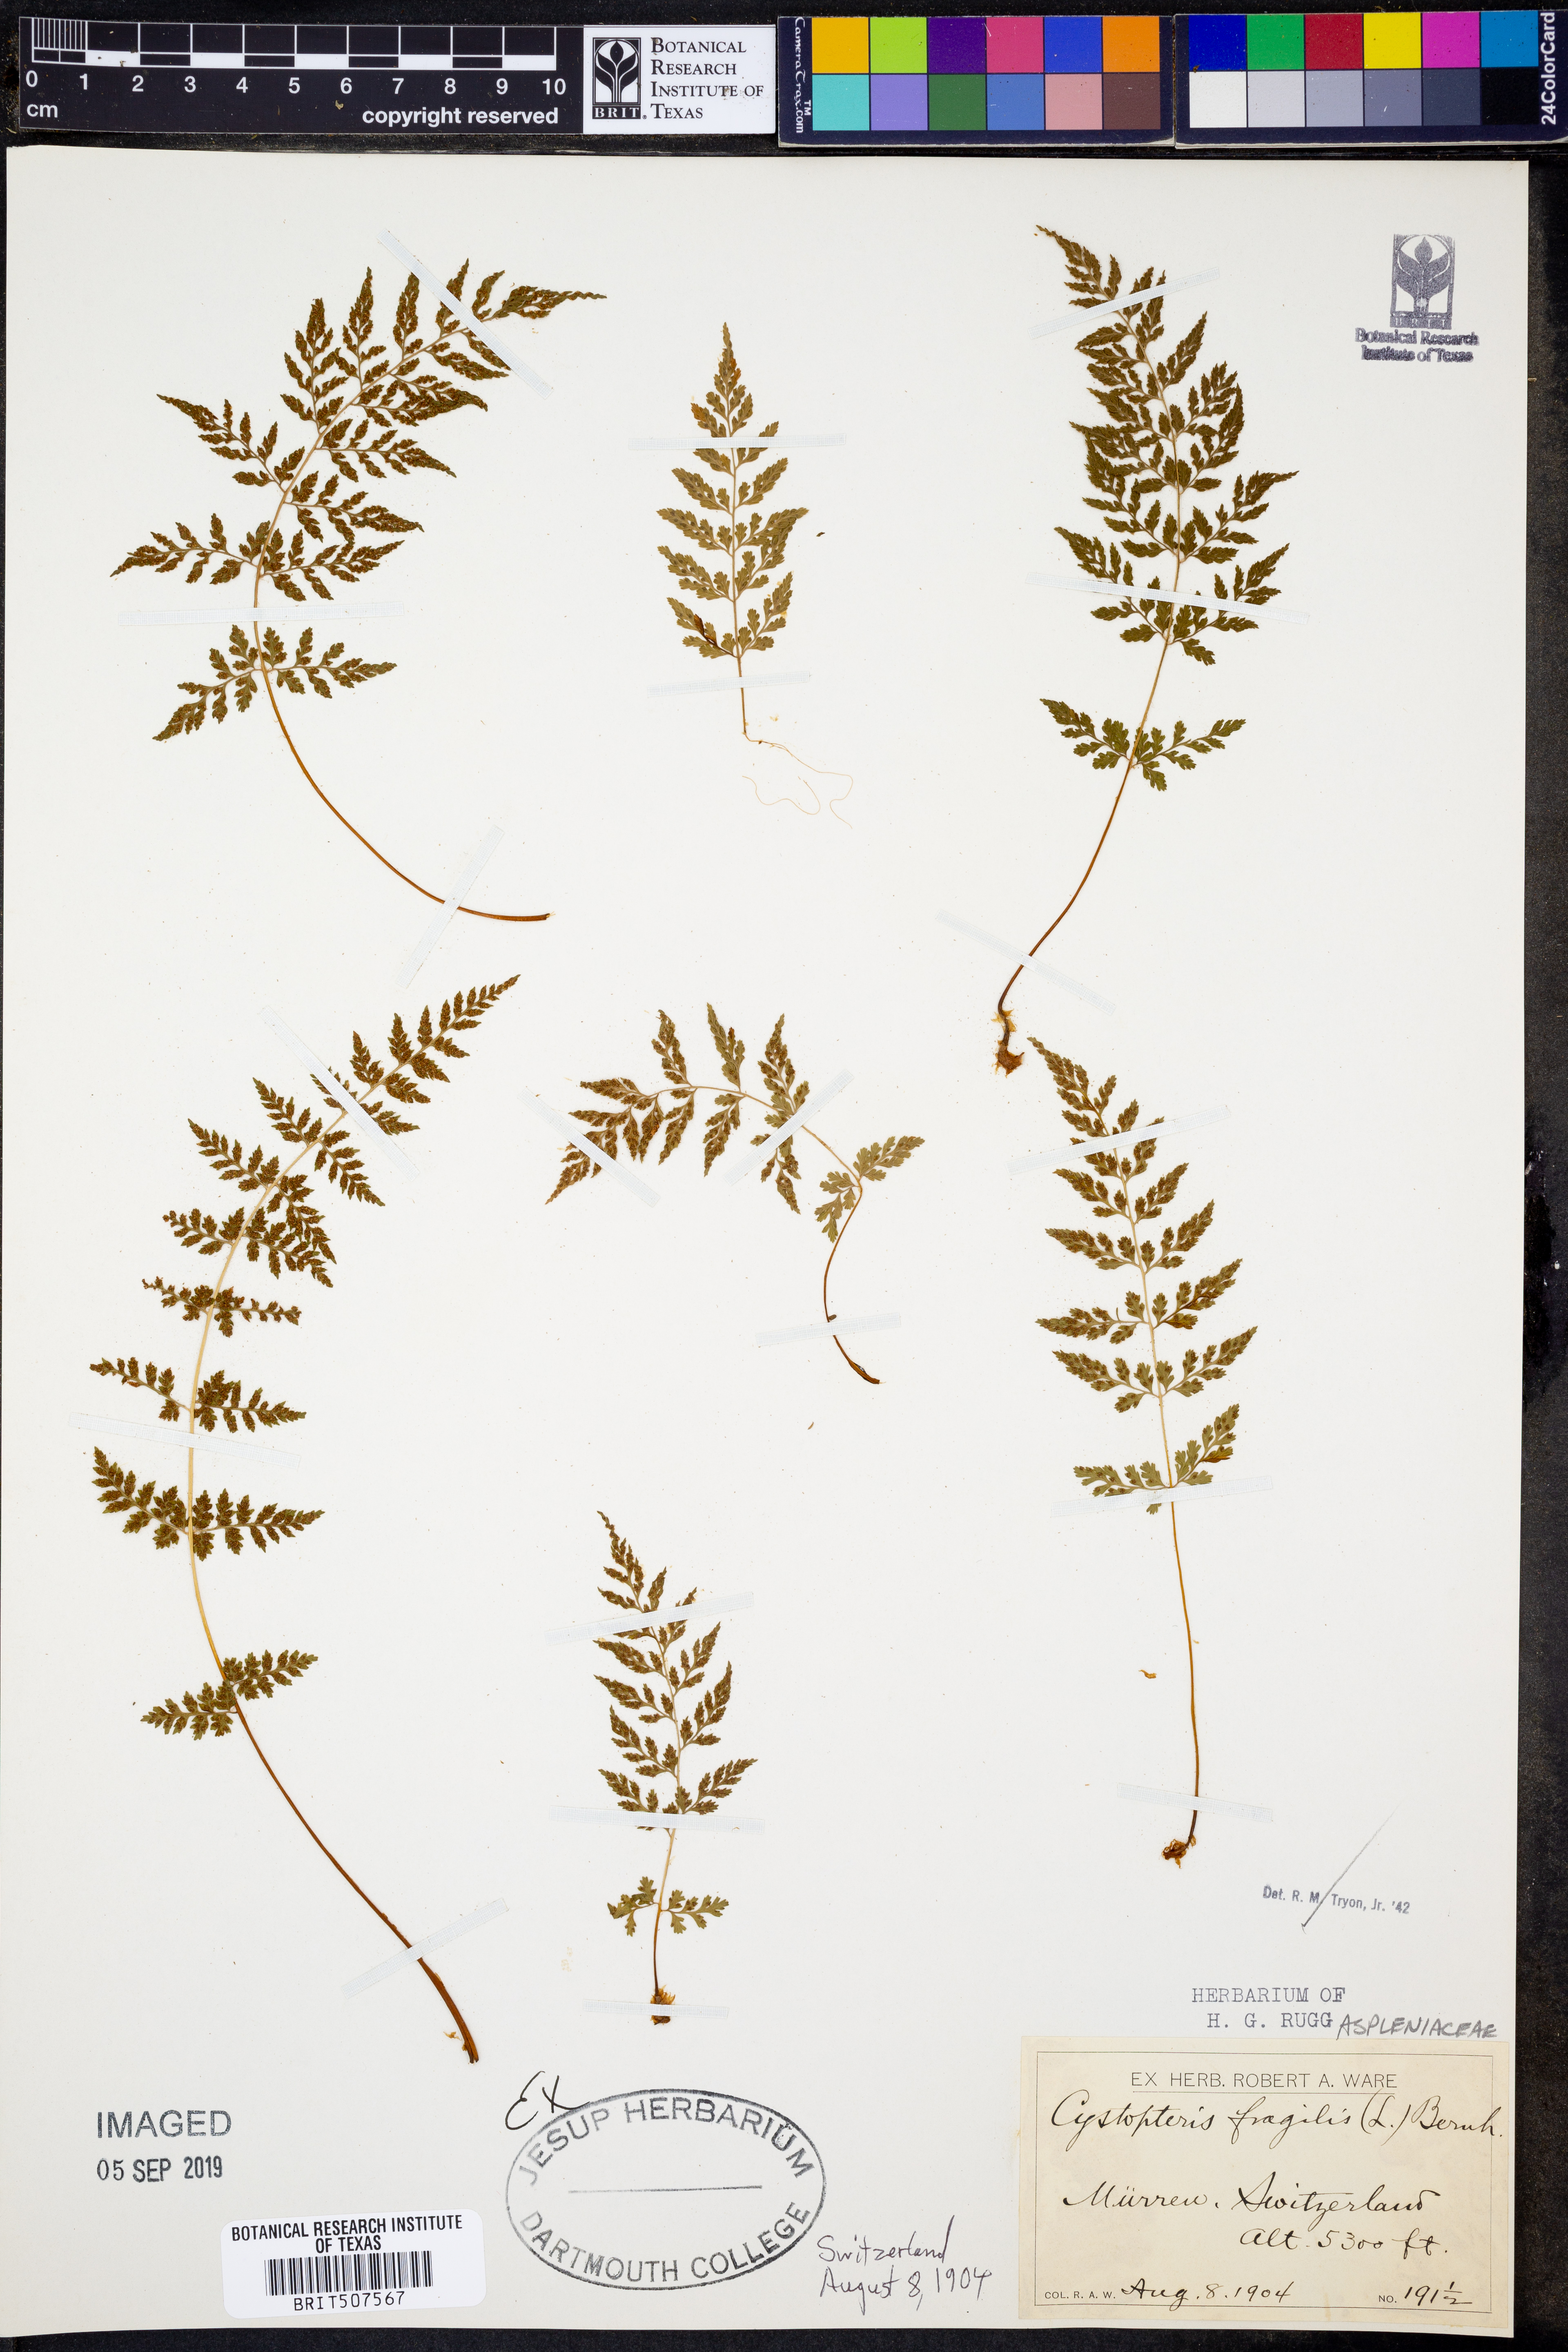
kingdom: Plantae
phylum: Tracheophyta
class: Polypodiopsida
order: Polypodiales
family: Cystopteridaceae
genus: Cystopteris
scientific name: Cystopteris fragilis
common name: Brittle bladder fern
